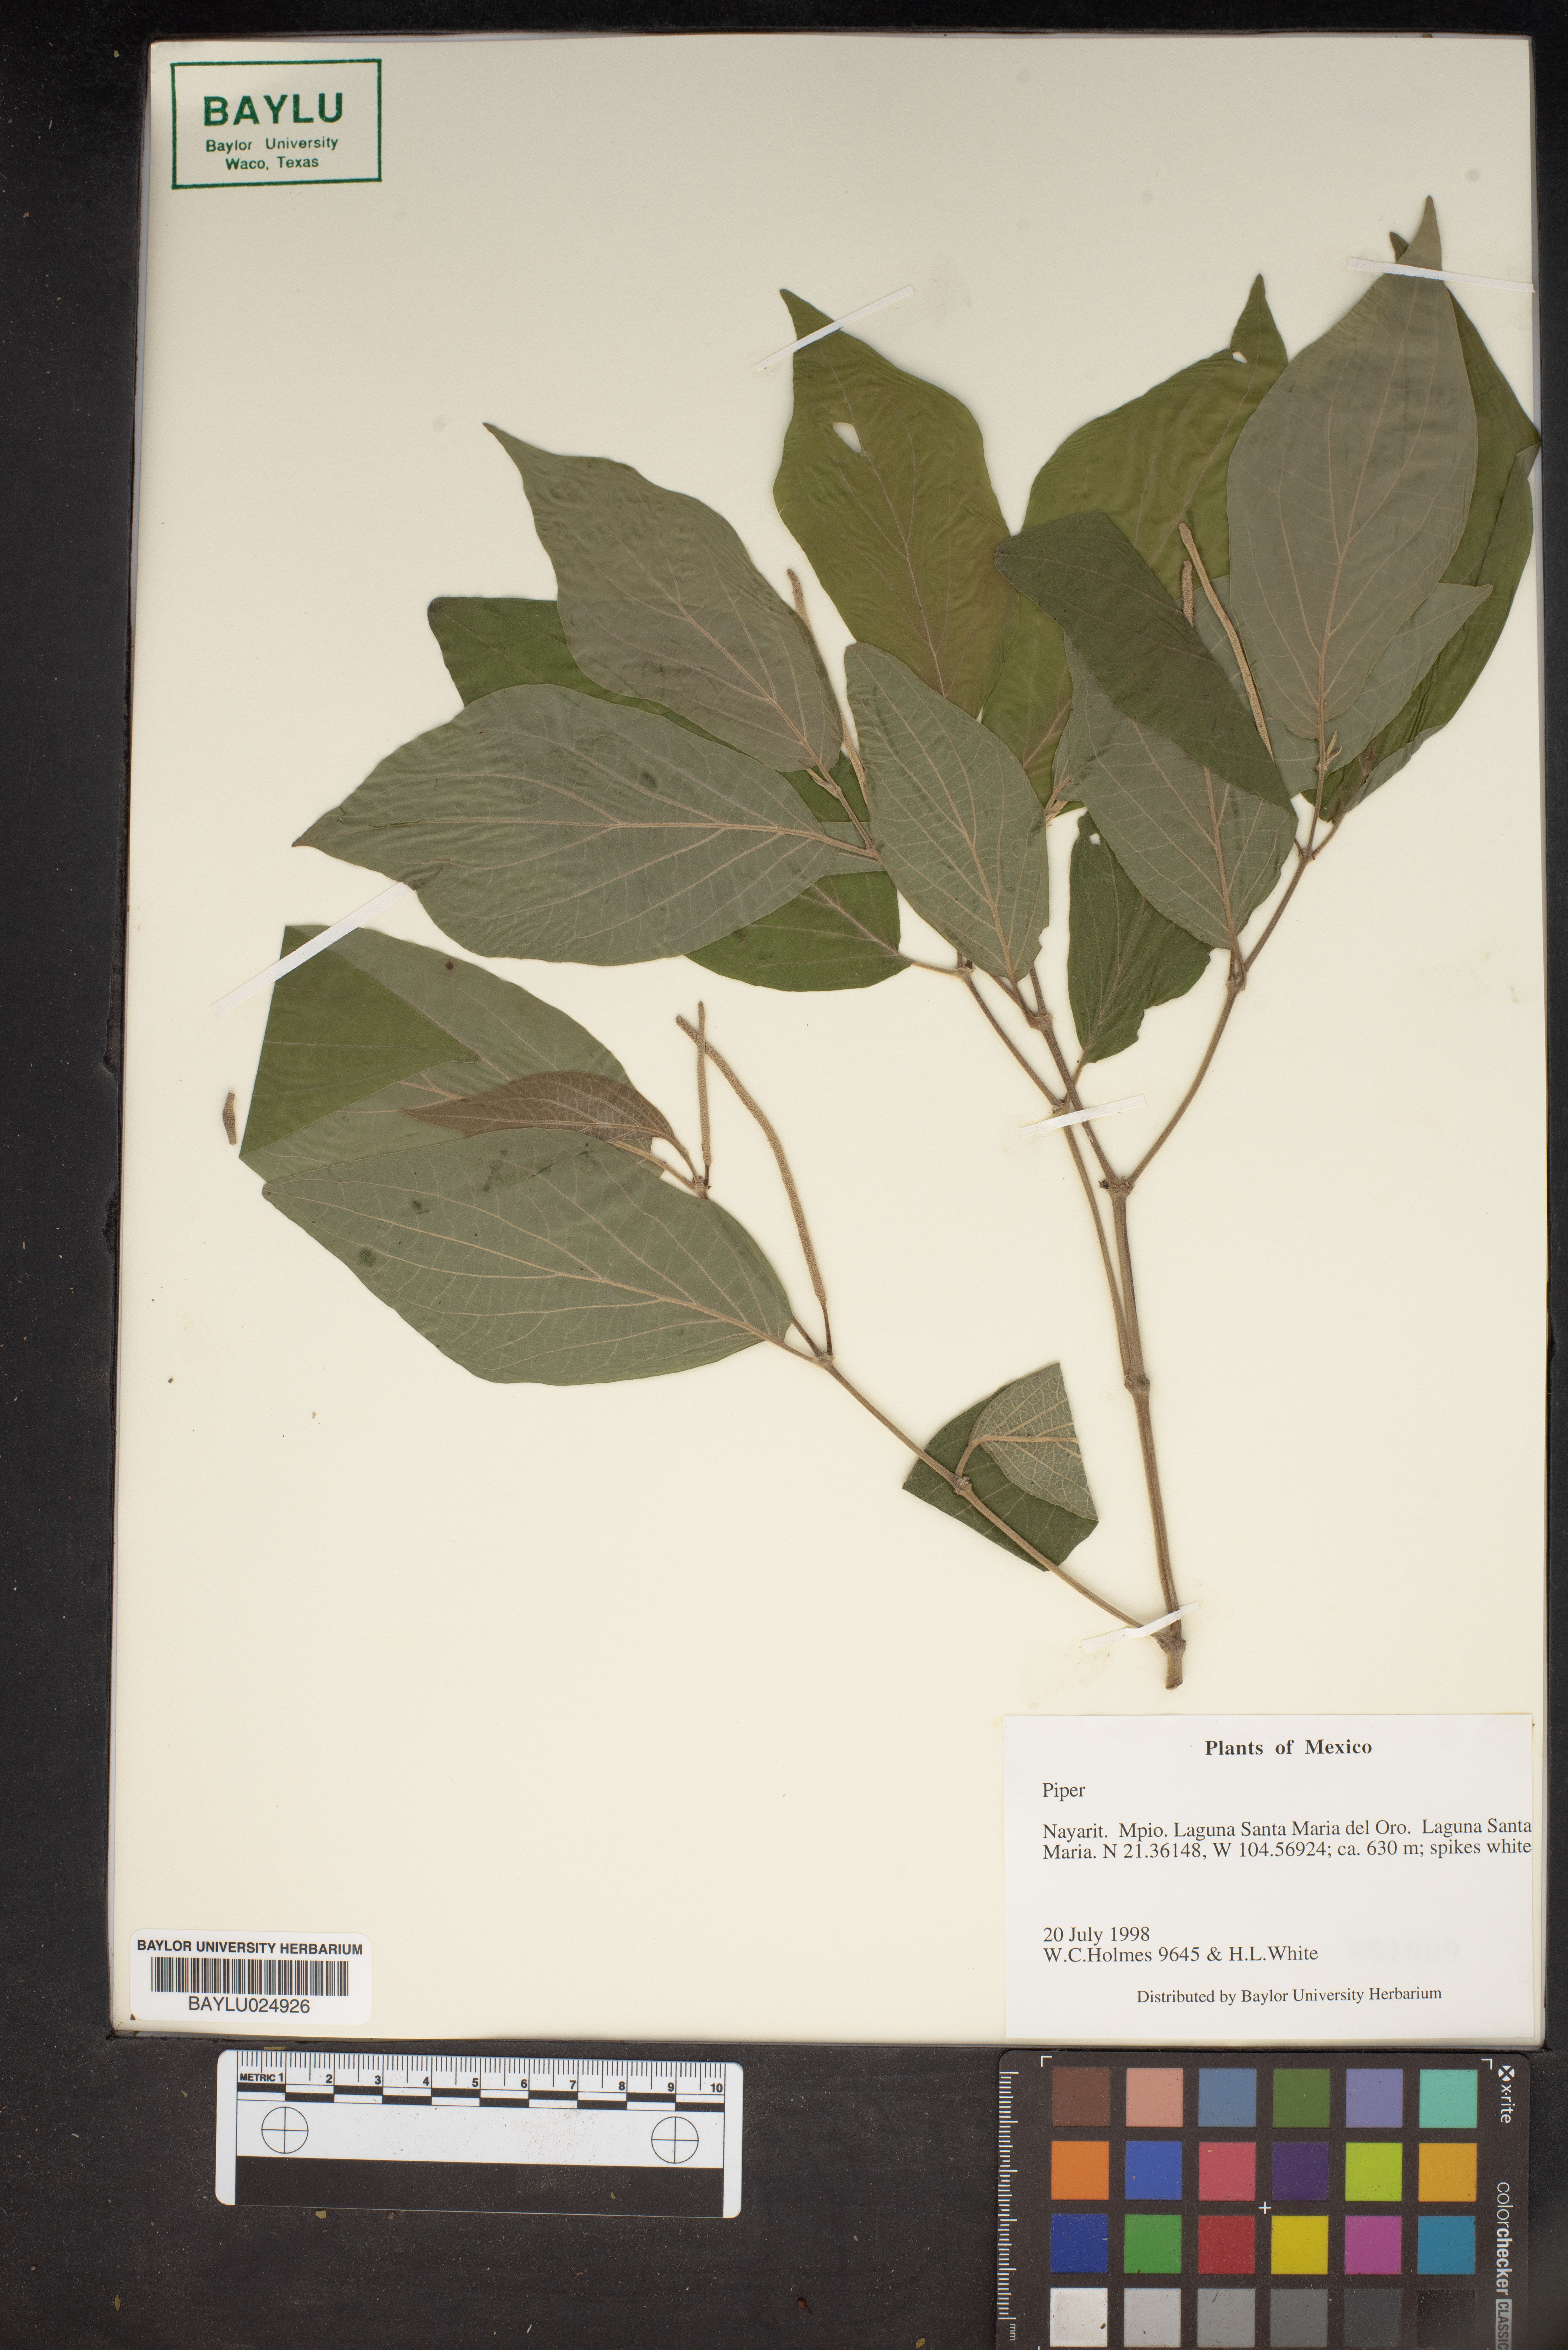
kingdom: Plantae
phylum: Tracheophyta
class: Magnoliopsida
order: Piperales
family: Piperaceae
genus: Piper
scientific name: Piper
